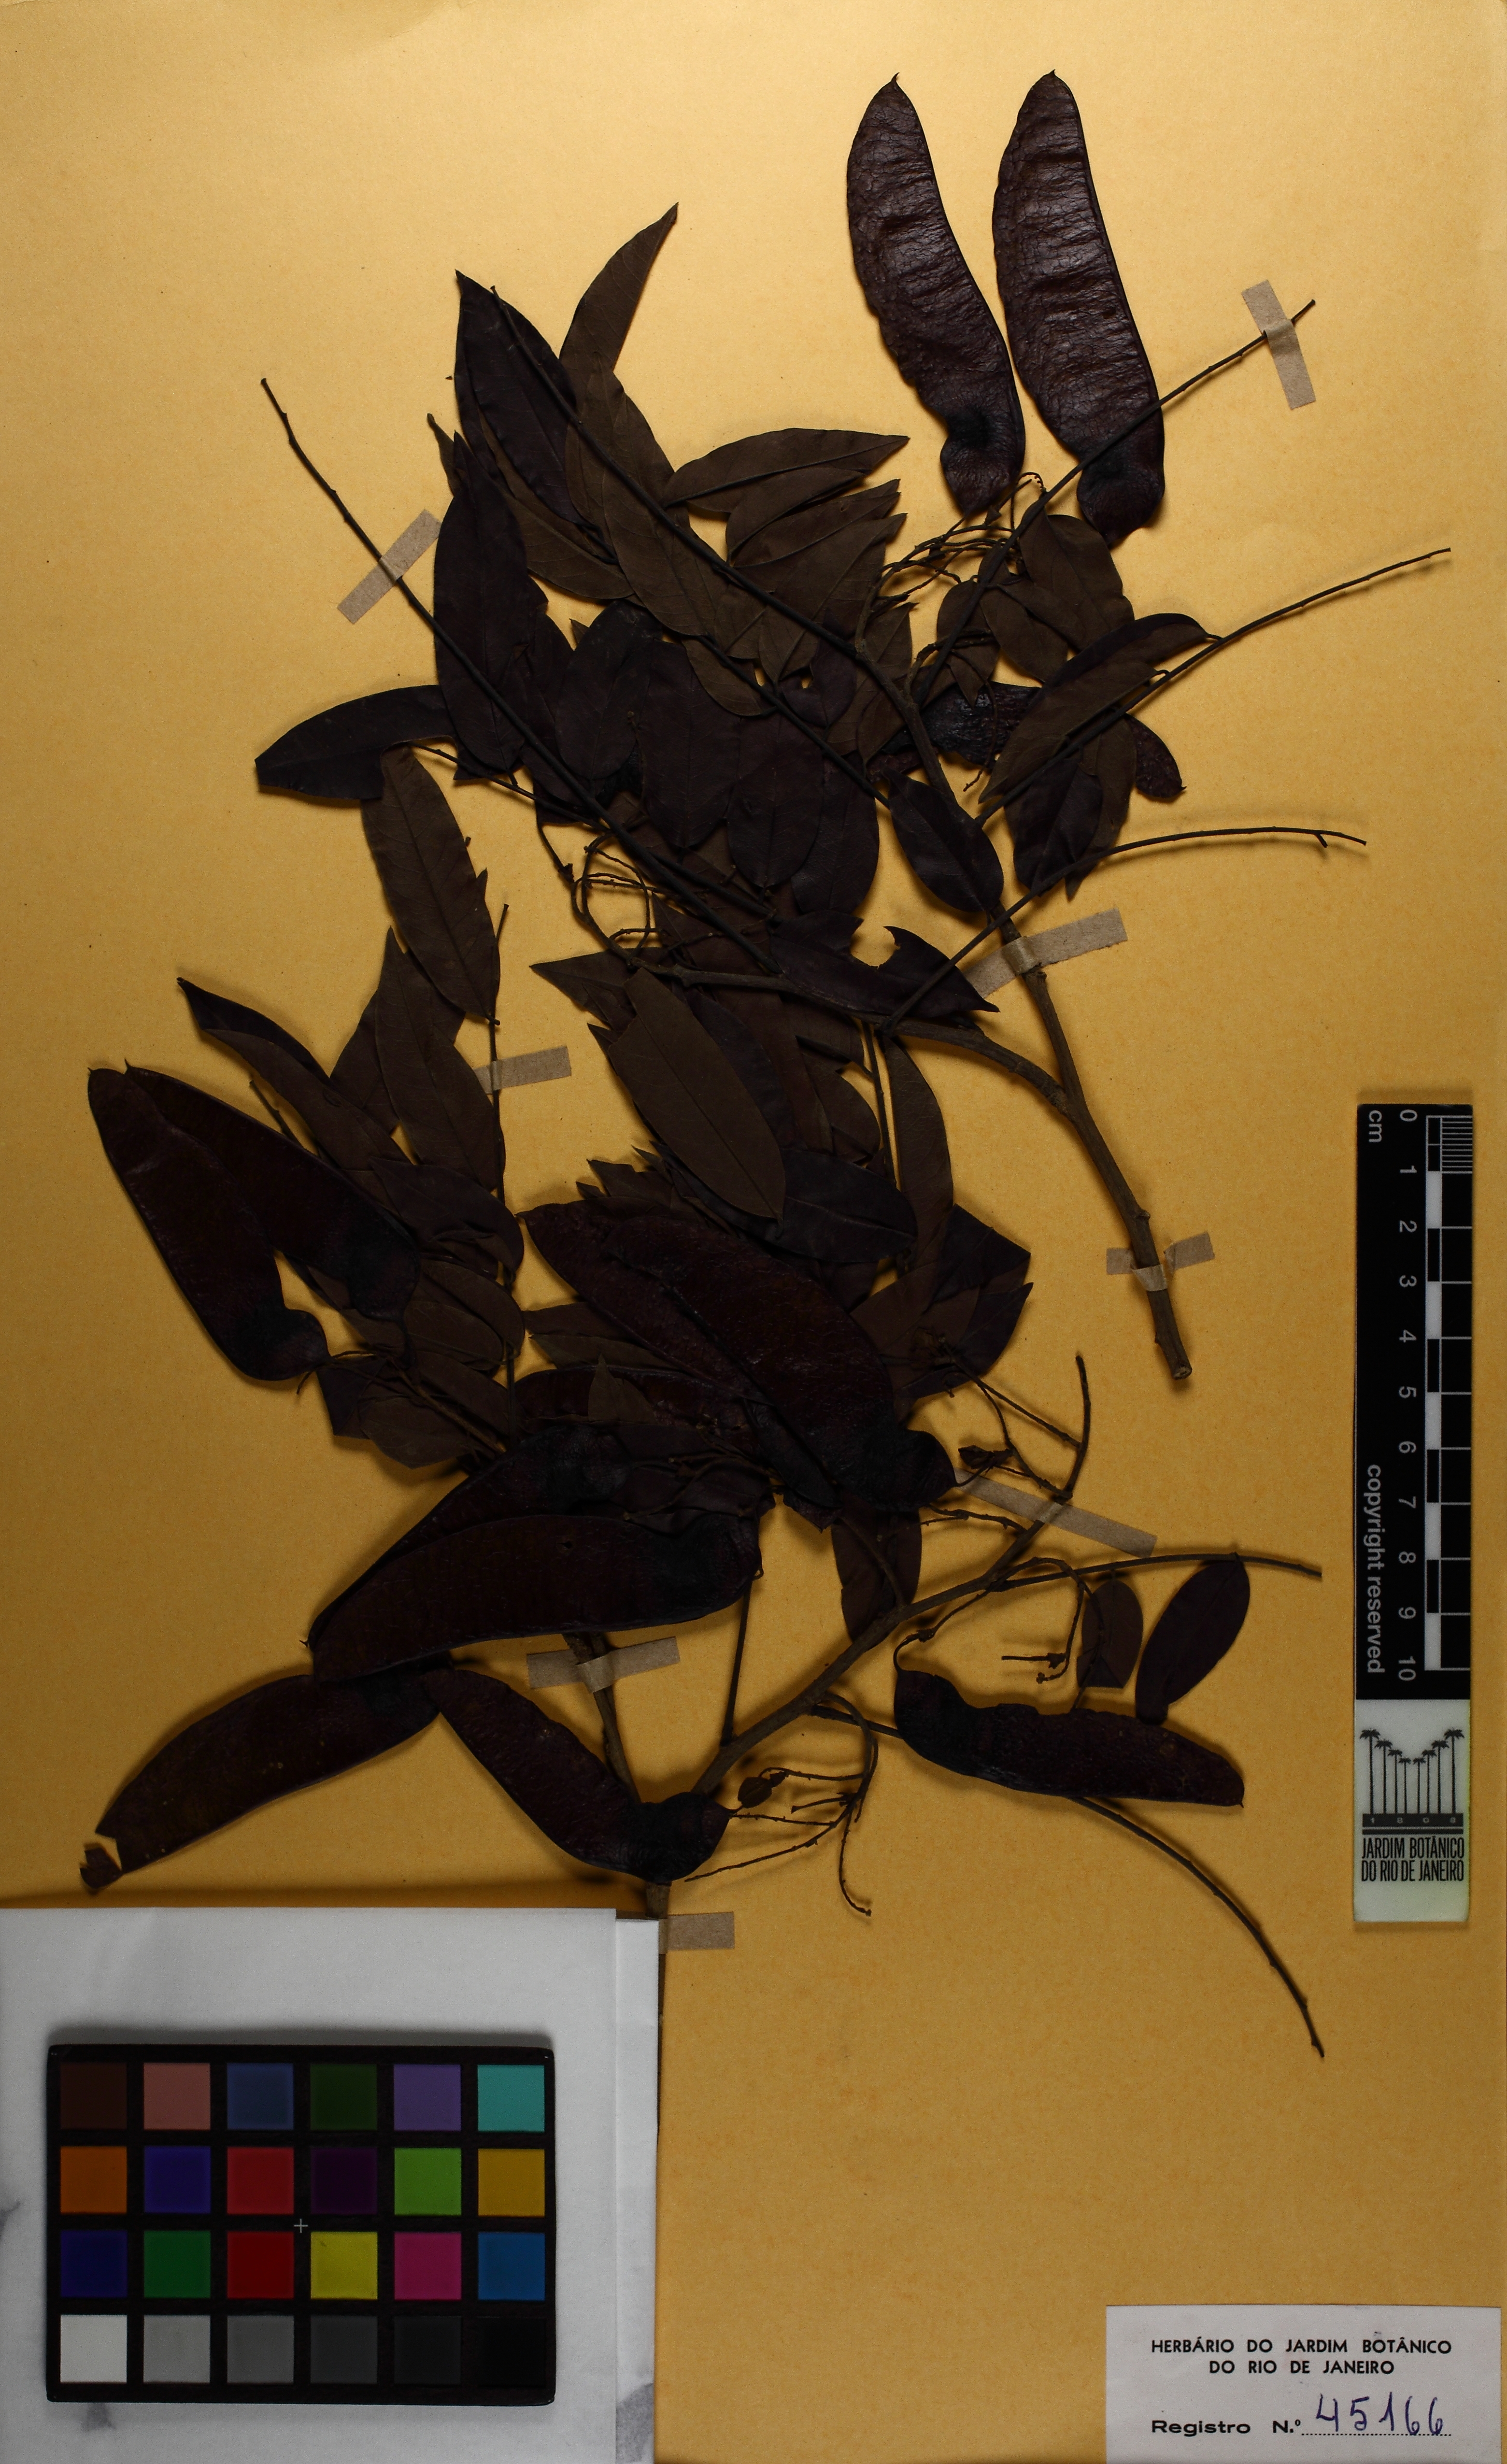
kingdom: Plantae
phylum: Tracheophyta
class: Magnoliopsida
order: Fabales
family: Fabaceae
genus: Machaerium
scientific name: Machaerium cantarellianum
